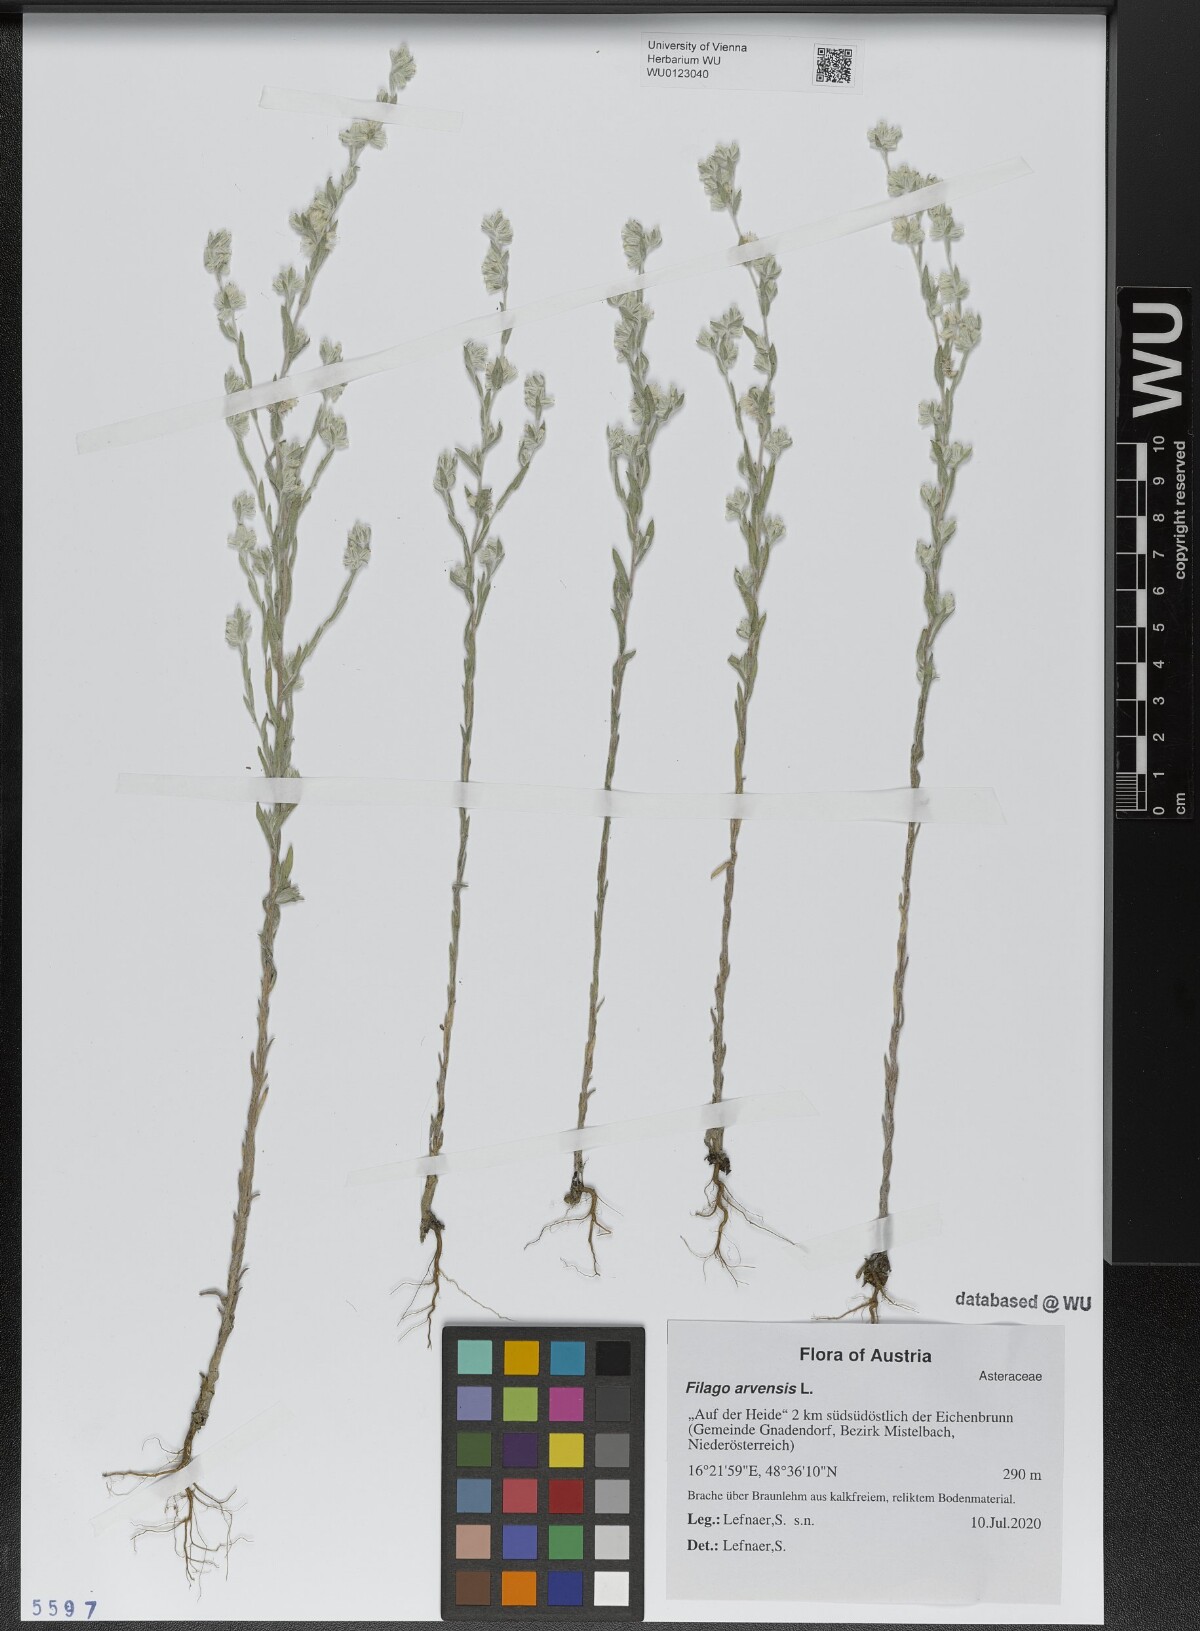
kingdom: Plantae
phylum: Tracheophyta
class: Magnoliopsida
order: Asterales
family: Asteraceae
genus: Filago
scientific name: Filago arvensis
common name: Field cudweed
